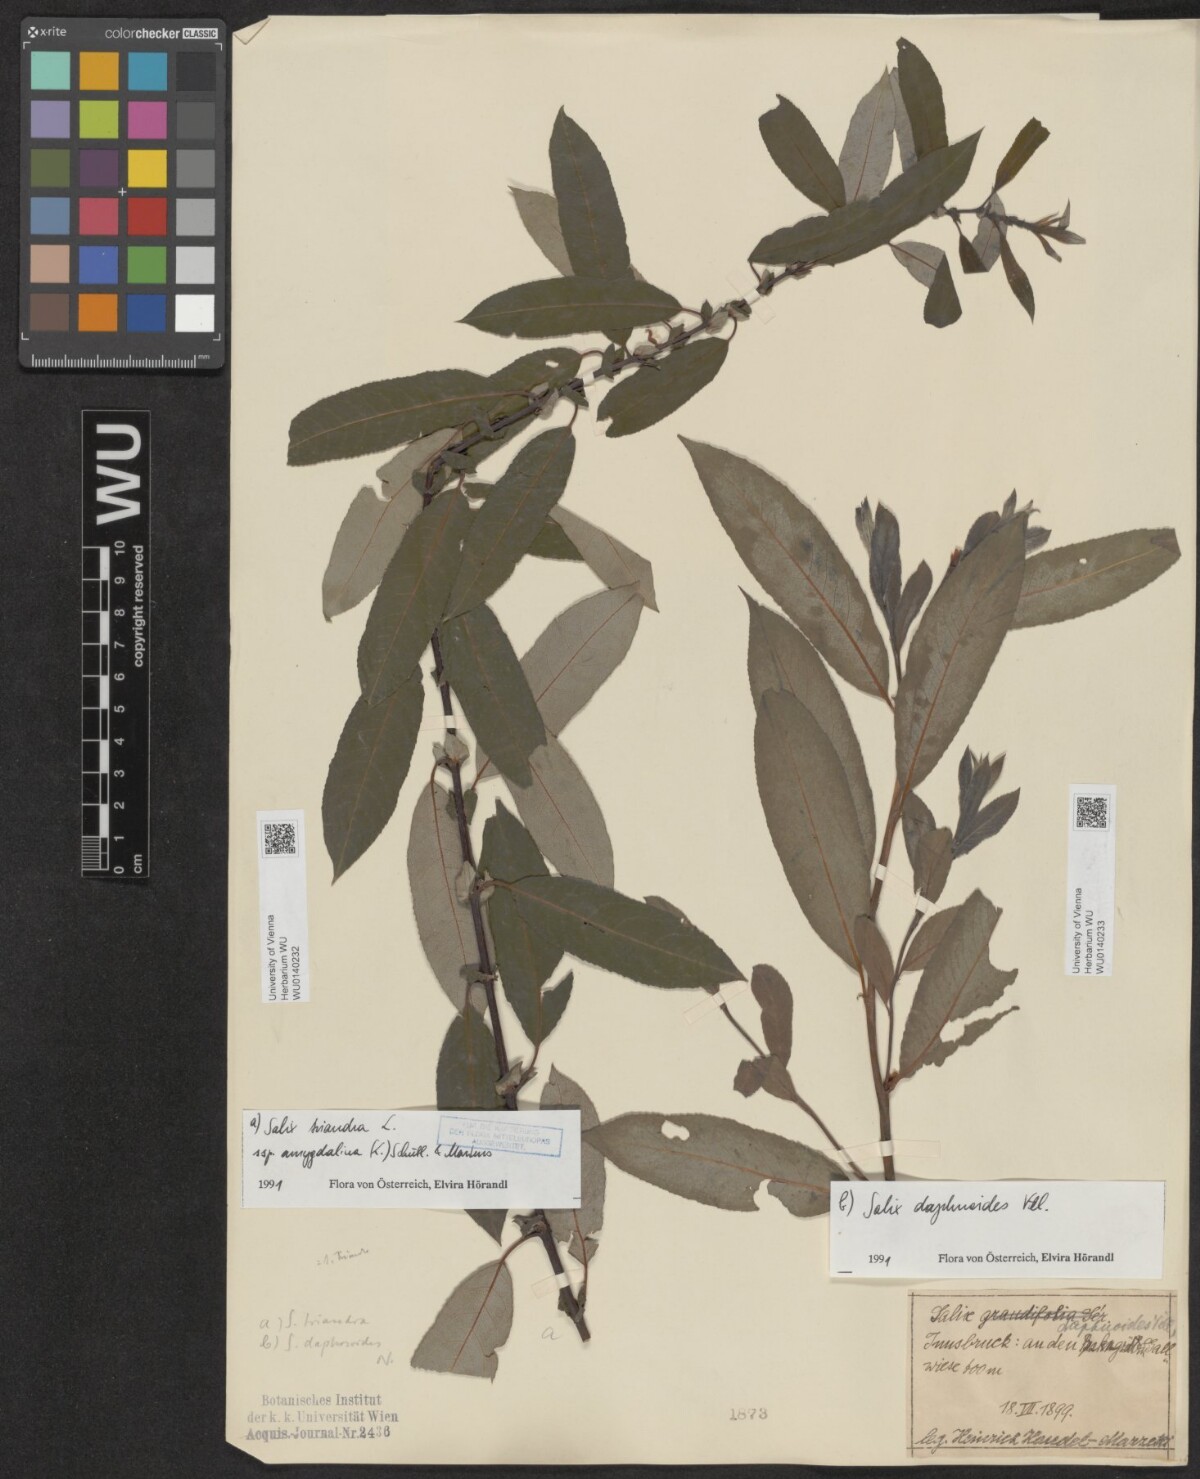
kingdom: Plantae
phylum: Tracheophyta
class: Magnoliopsida
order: Malpighiales
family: Salicaceae
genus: Salix
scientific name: Salix triandra
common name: Almond willow
